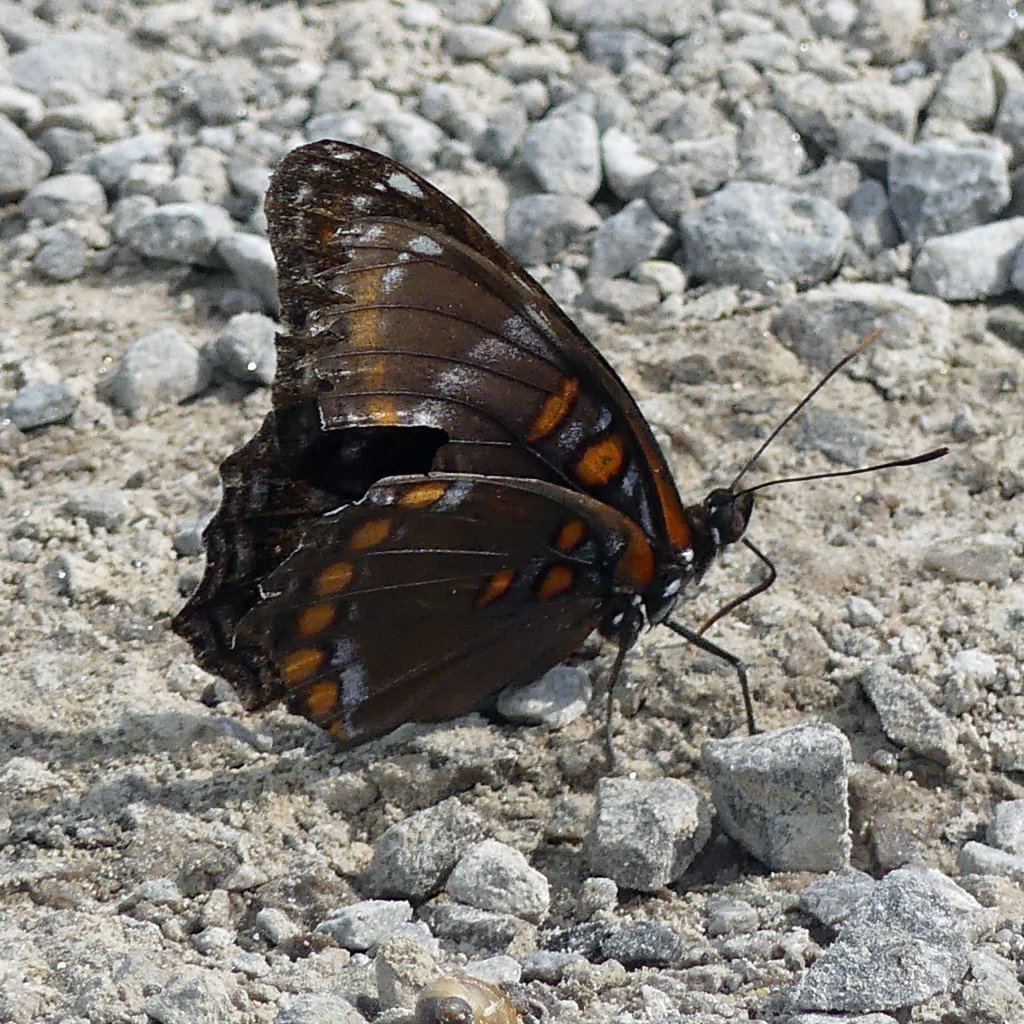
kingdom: Animalia
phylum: Arthropoda
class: Insecta
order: Lepidoptera
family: Nymphalidae
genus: Limenitis
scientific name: Limenitis astyanax
